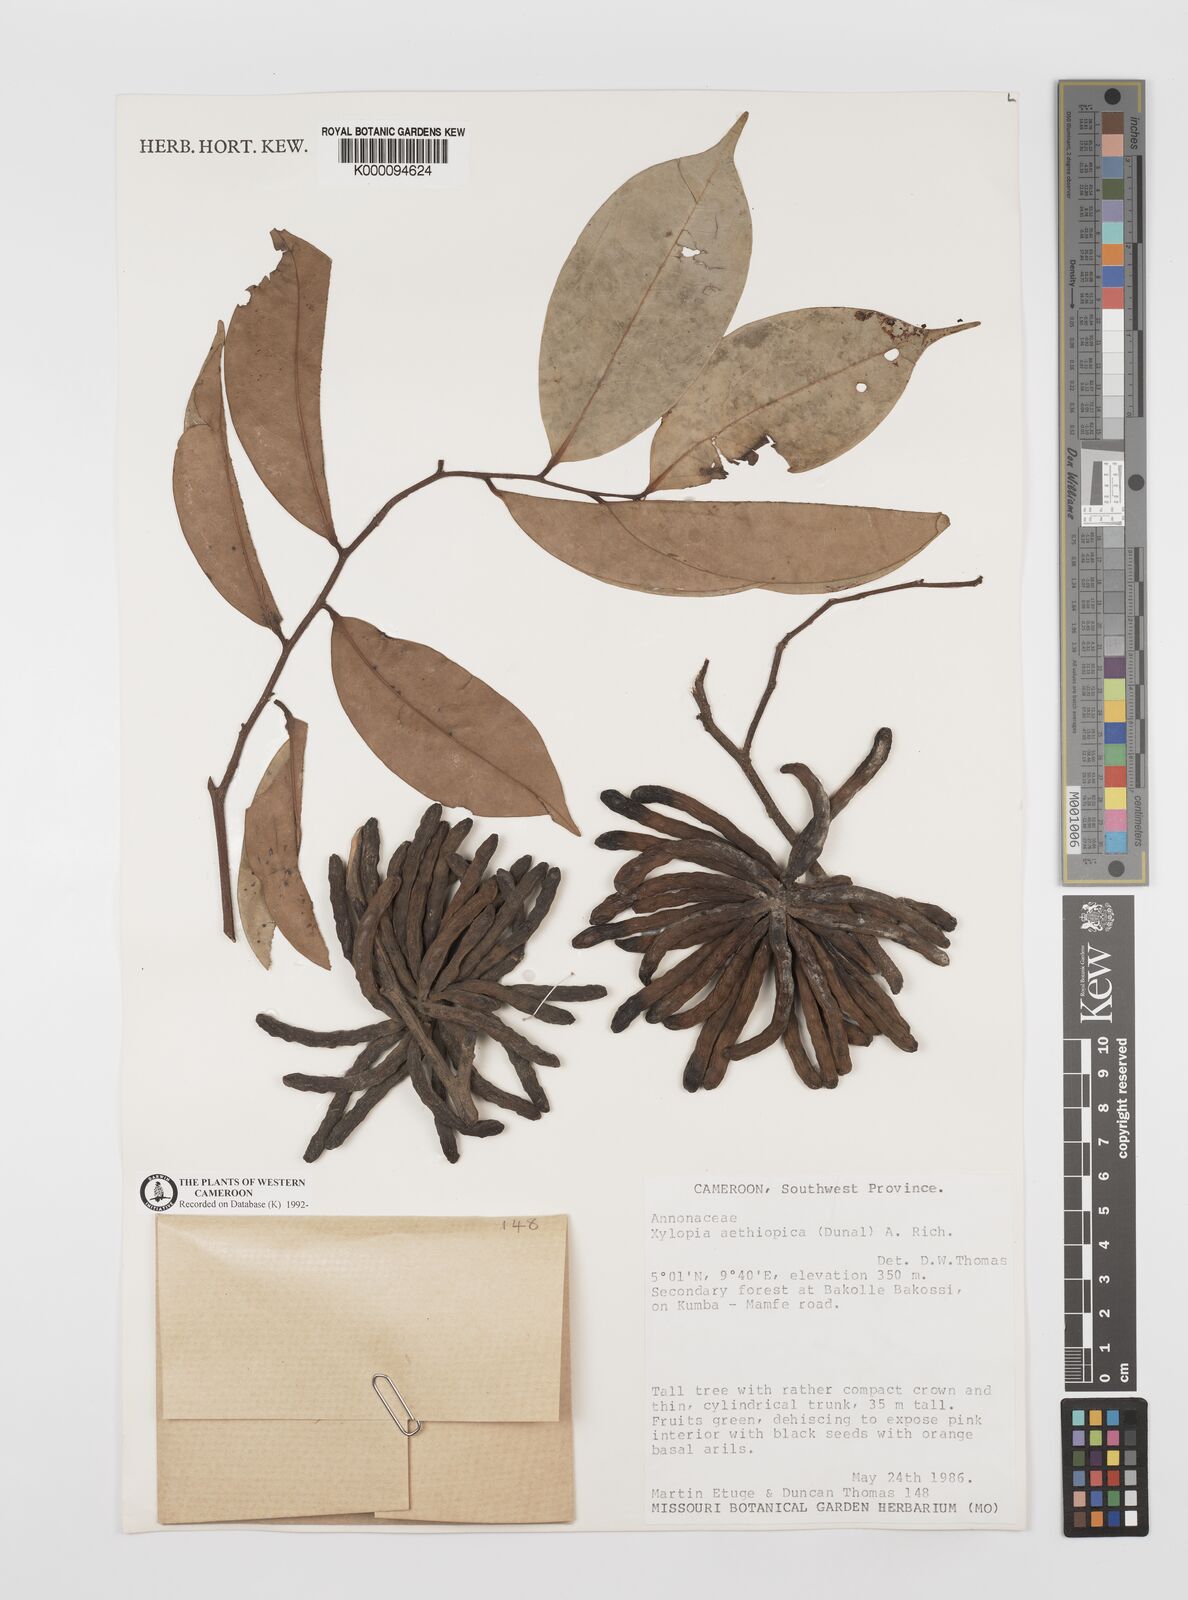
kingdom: Plantae
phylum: Tracheophyta
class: Magnoliopsida
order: Magnoliales
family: Annonaceae
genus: Xylopia
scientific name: Xylopia aethiopica
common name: Ethiopian-pepper
